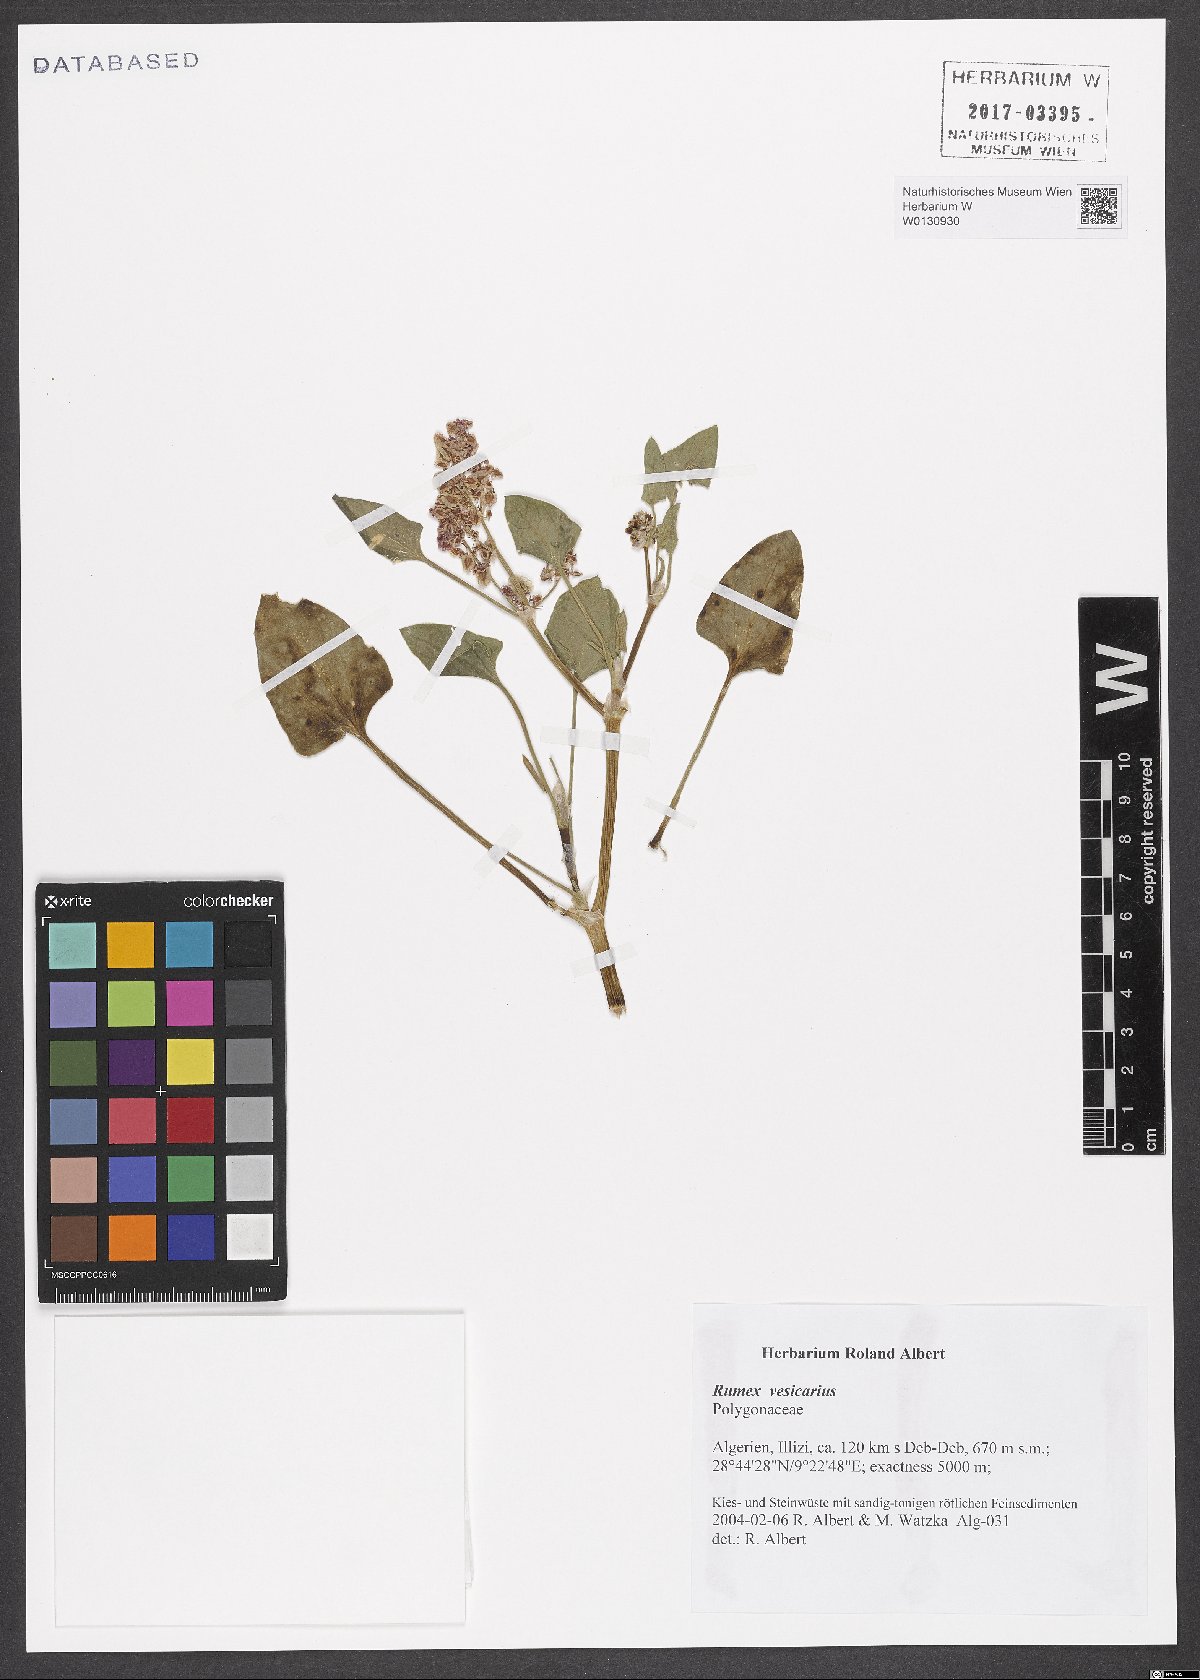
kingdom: Plantae
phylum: Tracheophyta
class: Magnoliopsida
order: Caryophyllales
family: Polygonaceae
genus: Rumex
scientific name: Rumex vesicarius
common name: Bladder dock
